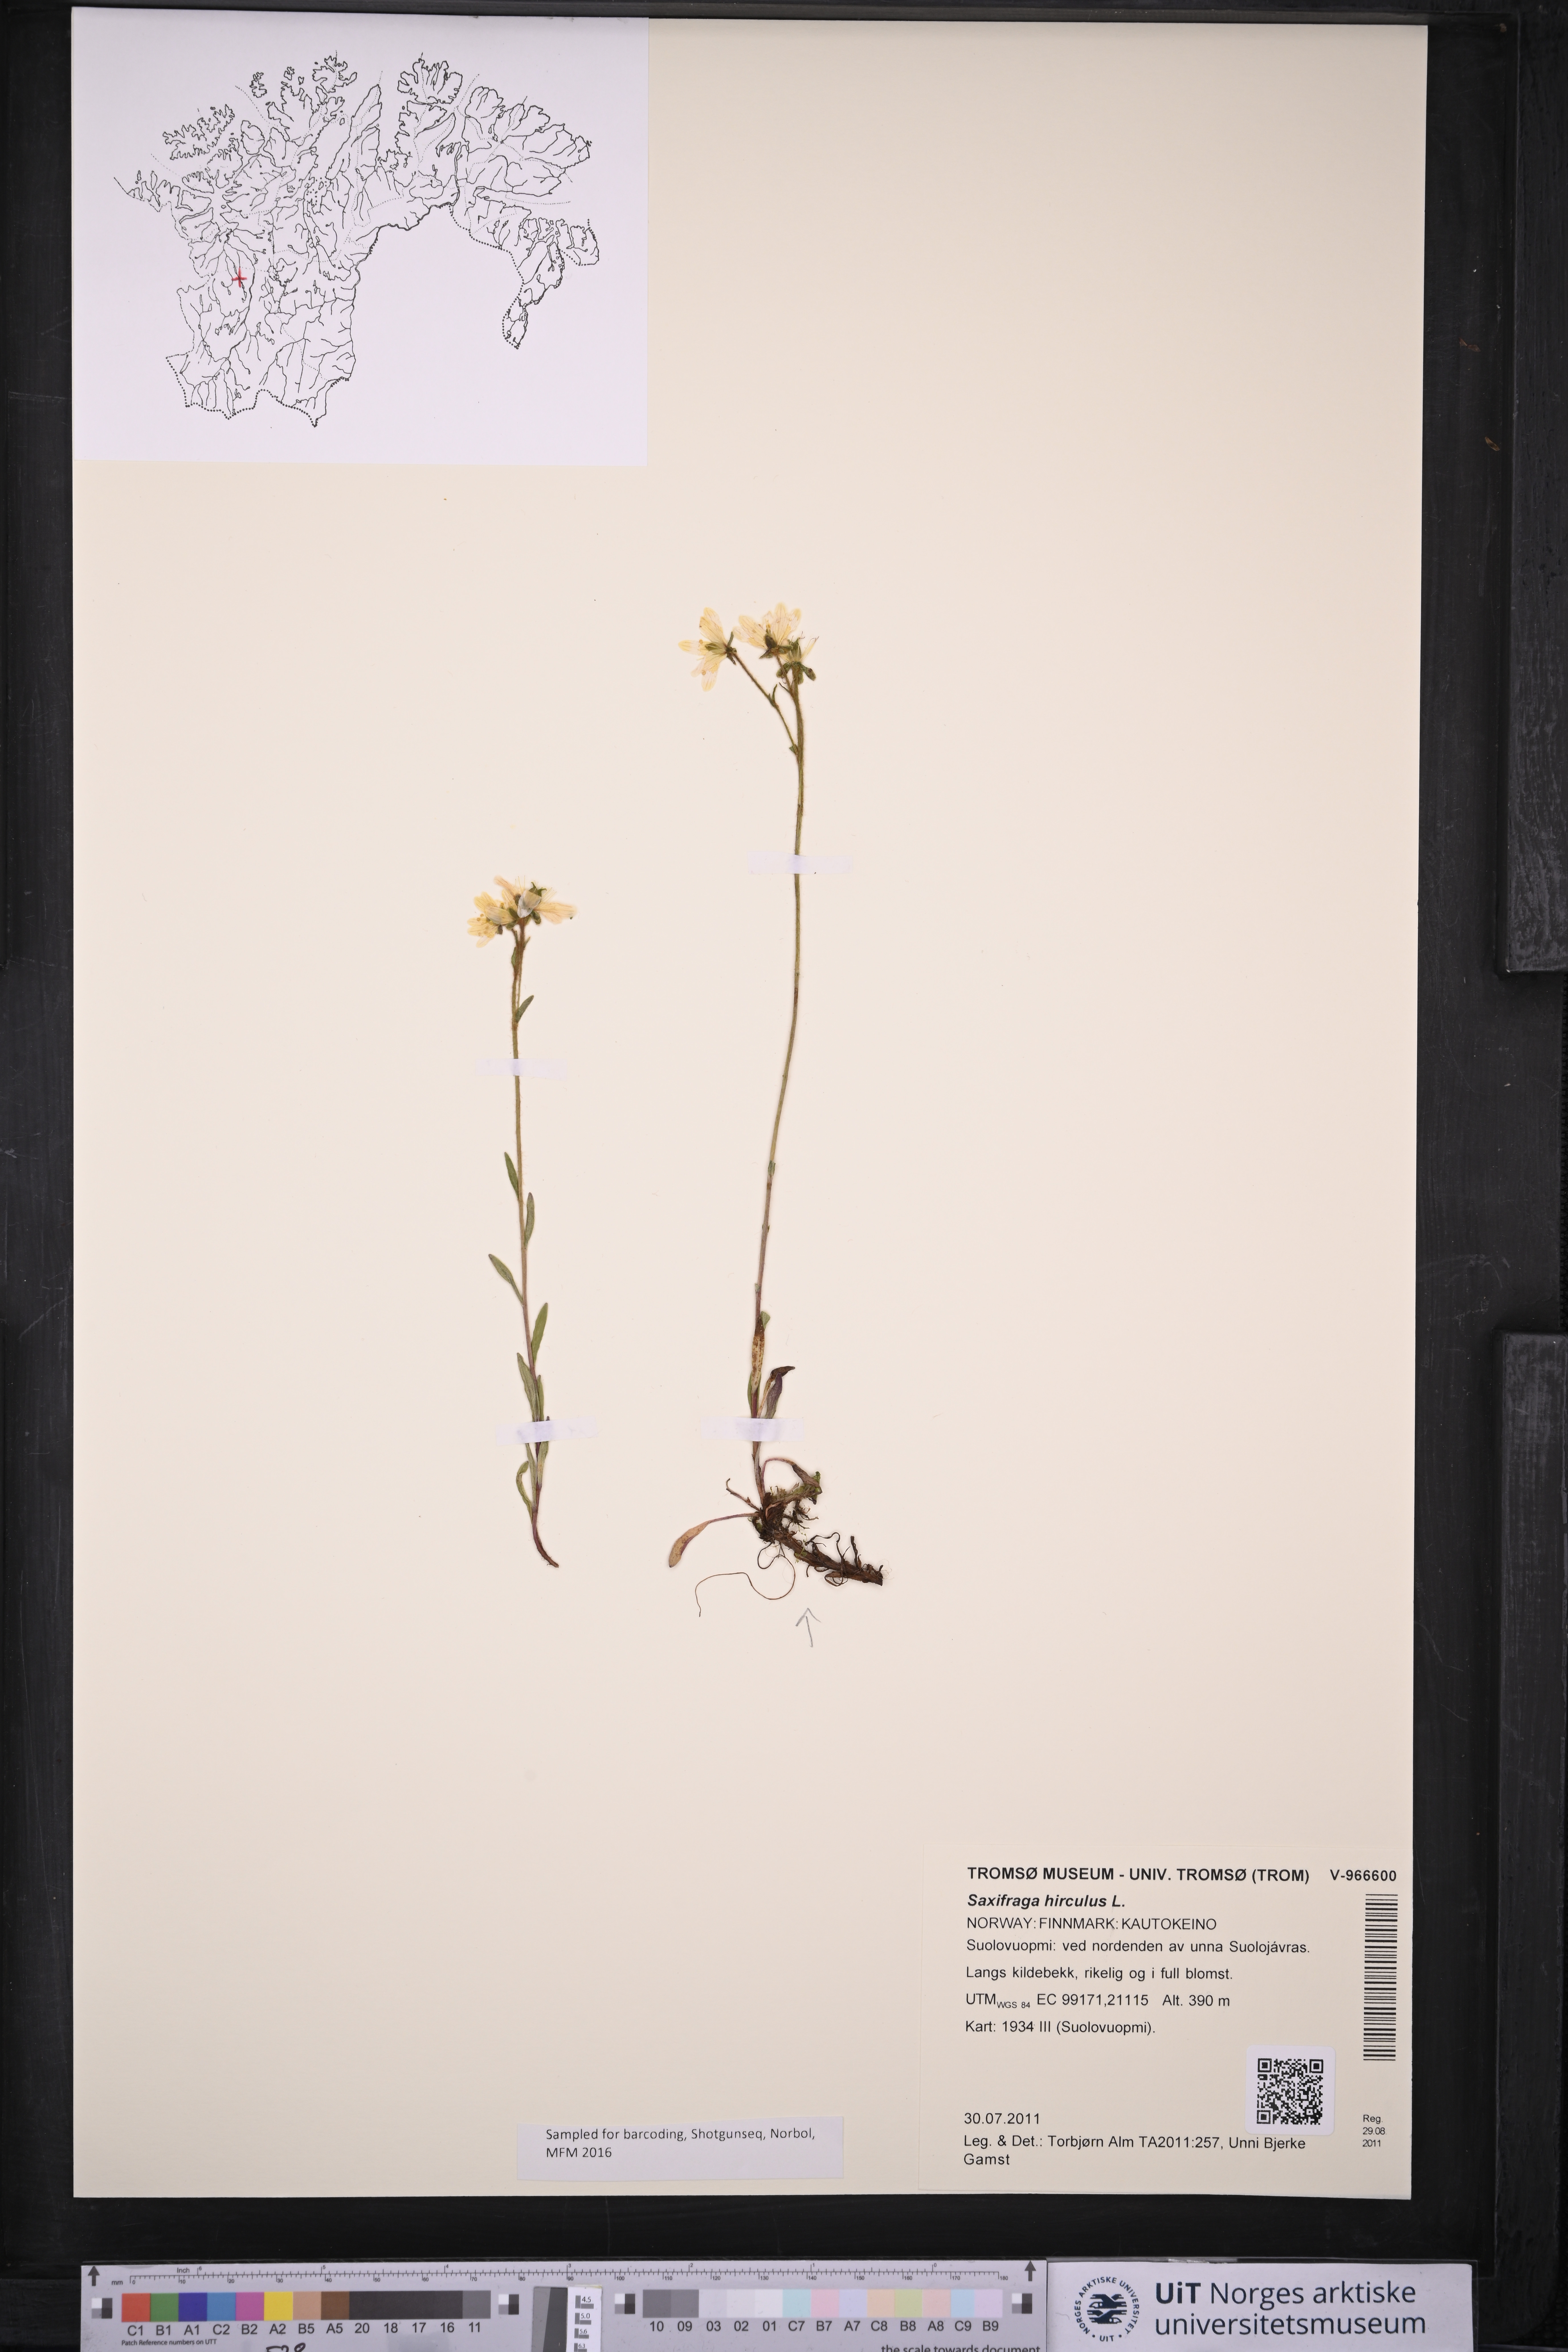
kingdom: Plantae
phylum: Tracheophyta
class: Magnoliopsida
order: Saxifragales
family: Saxifragaceae
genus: Saxifraga
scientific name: Saxifraga hirculus
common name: Yellow marsh saxifrage
